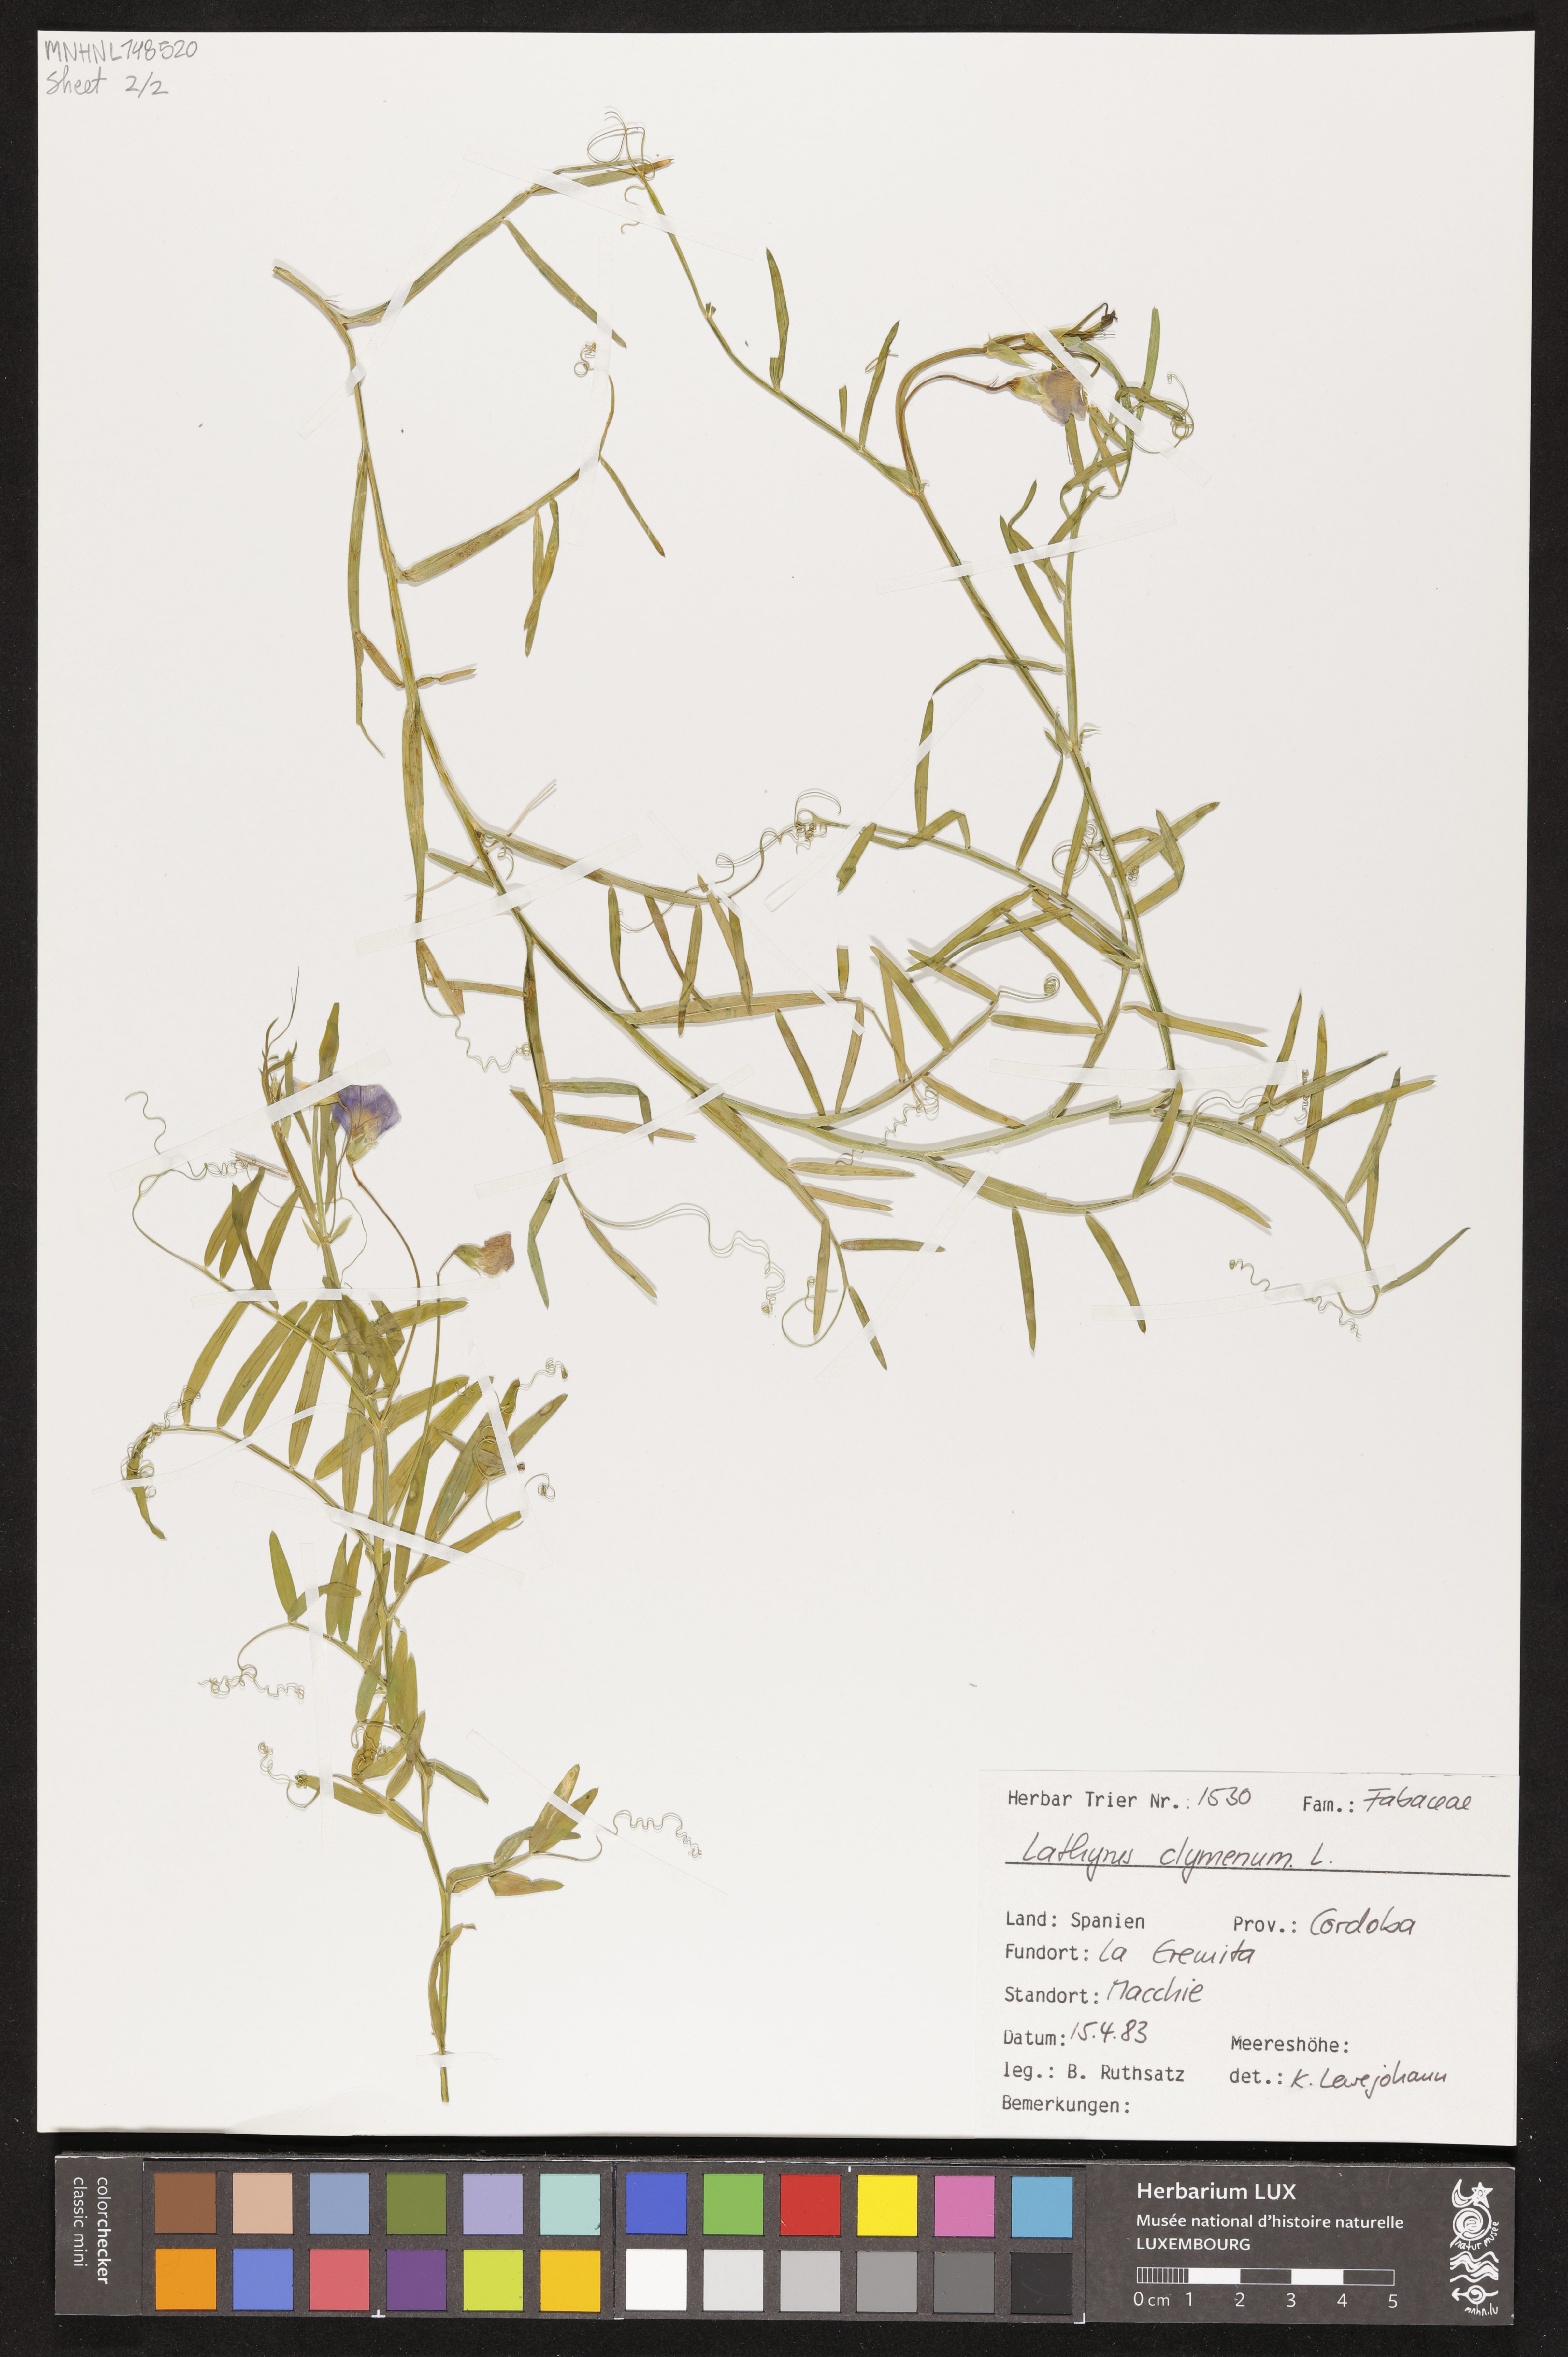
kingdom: Plantae
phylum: Tracheophyta
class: Magnoliopsida
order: Fabales
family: Fabaceae
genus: Lathyrus
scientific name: Lathyrus clymenum
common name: Spanish vetchling
